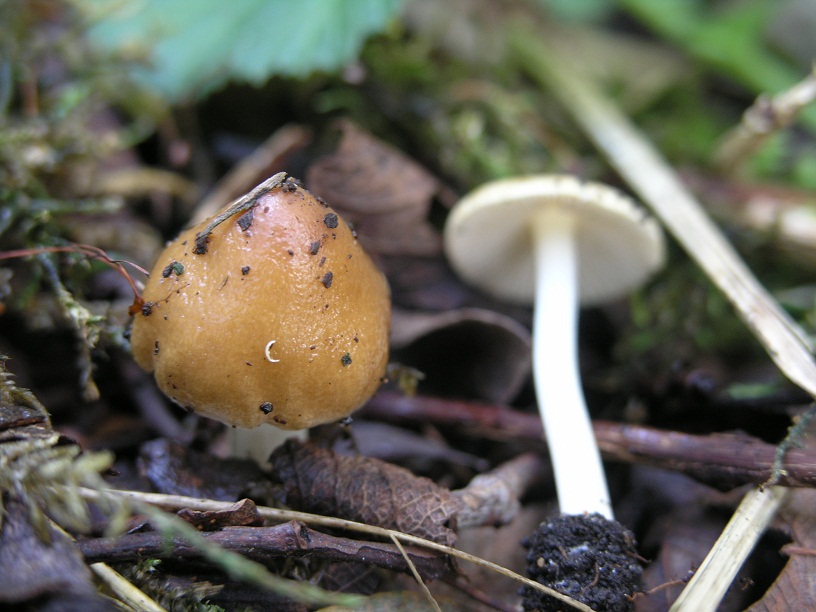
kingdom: Fungi
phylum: Basidiomycota
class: Agaricomycetes
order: Agaricales
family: Inocybaceae
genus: Inocybe
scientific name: Inocybe mixtilis
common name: randknoldet trævlhat
